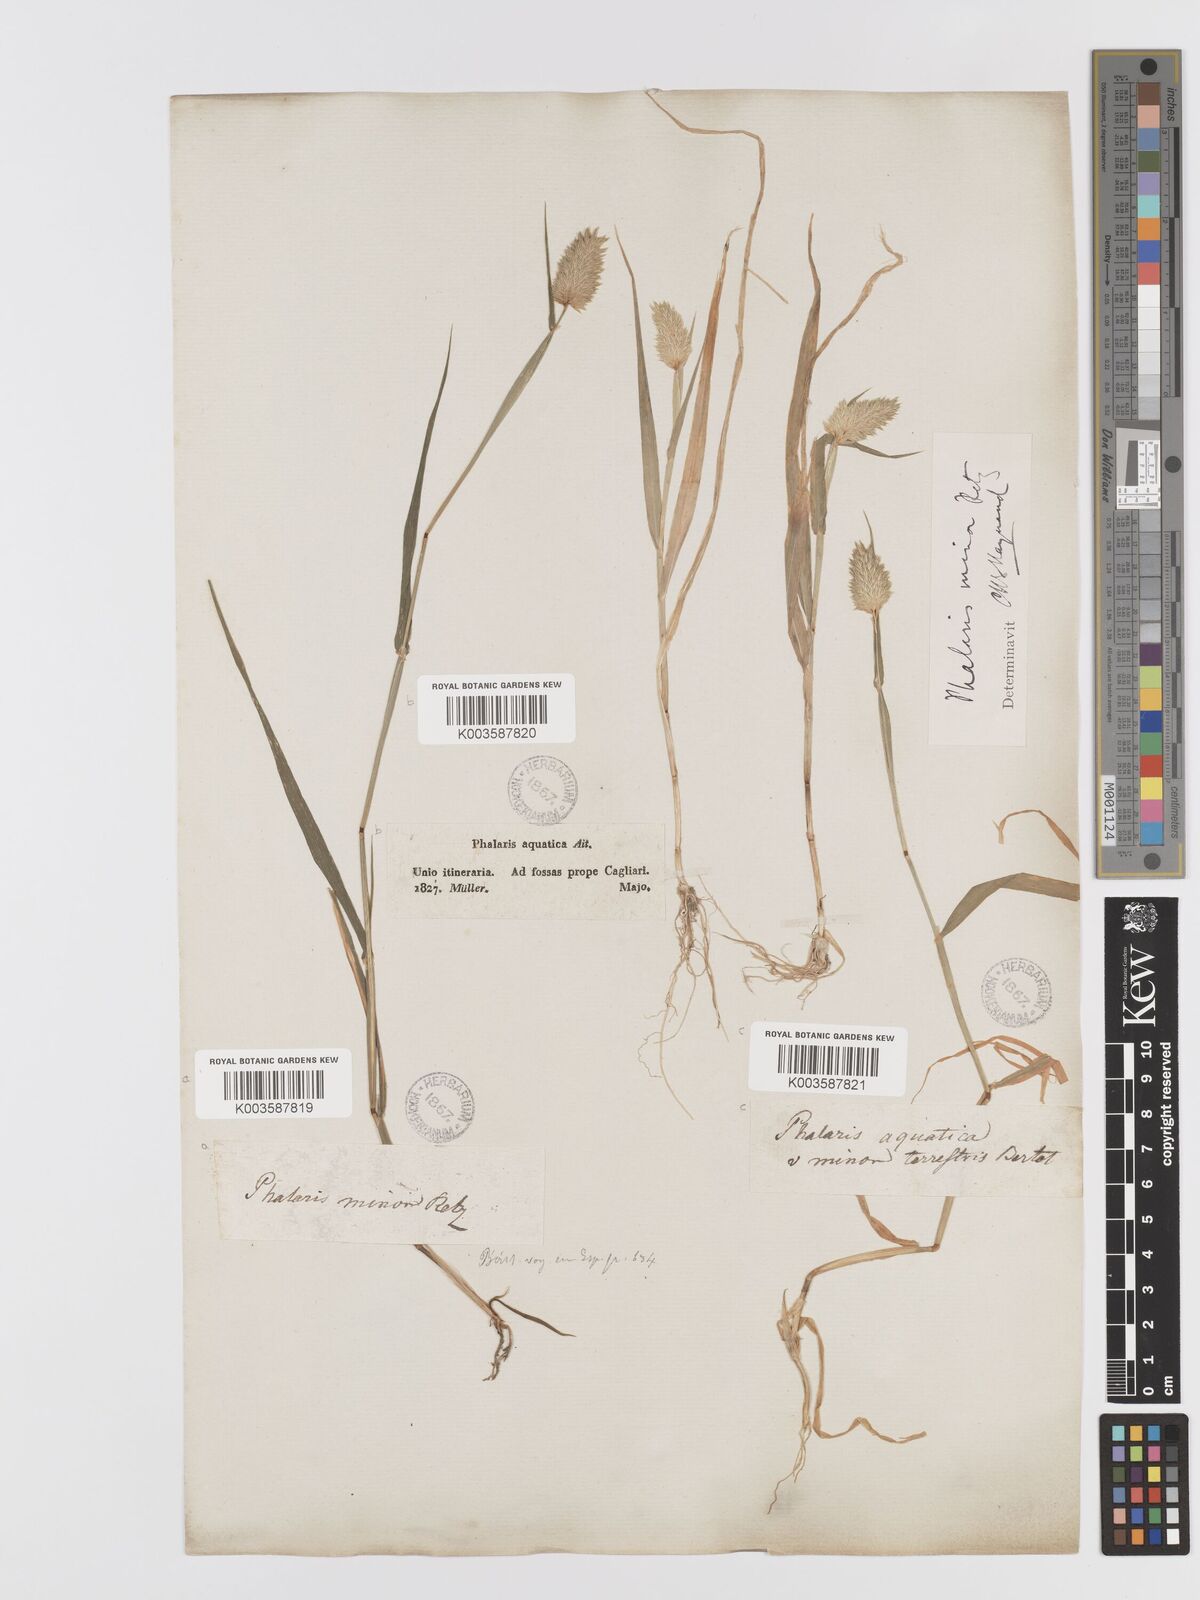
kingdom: Plantae
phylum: Tracheophyta
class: Liliopsida
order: Poales
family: Poaceae
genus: Phalaris
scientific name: Phalaris minor
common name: Littleseed canarygrass
